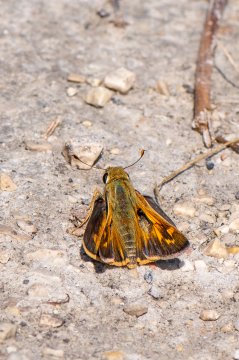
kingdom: Animalia
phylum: Arthropoda
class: Insecta
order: Lepidoptera
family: Hesperiidae
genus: Atalopedes
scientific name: Atalopedes campestris
